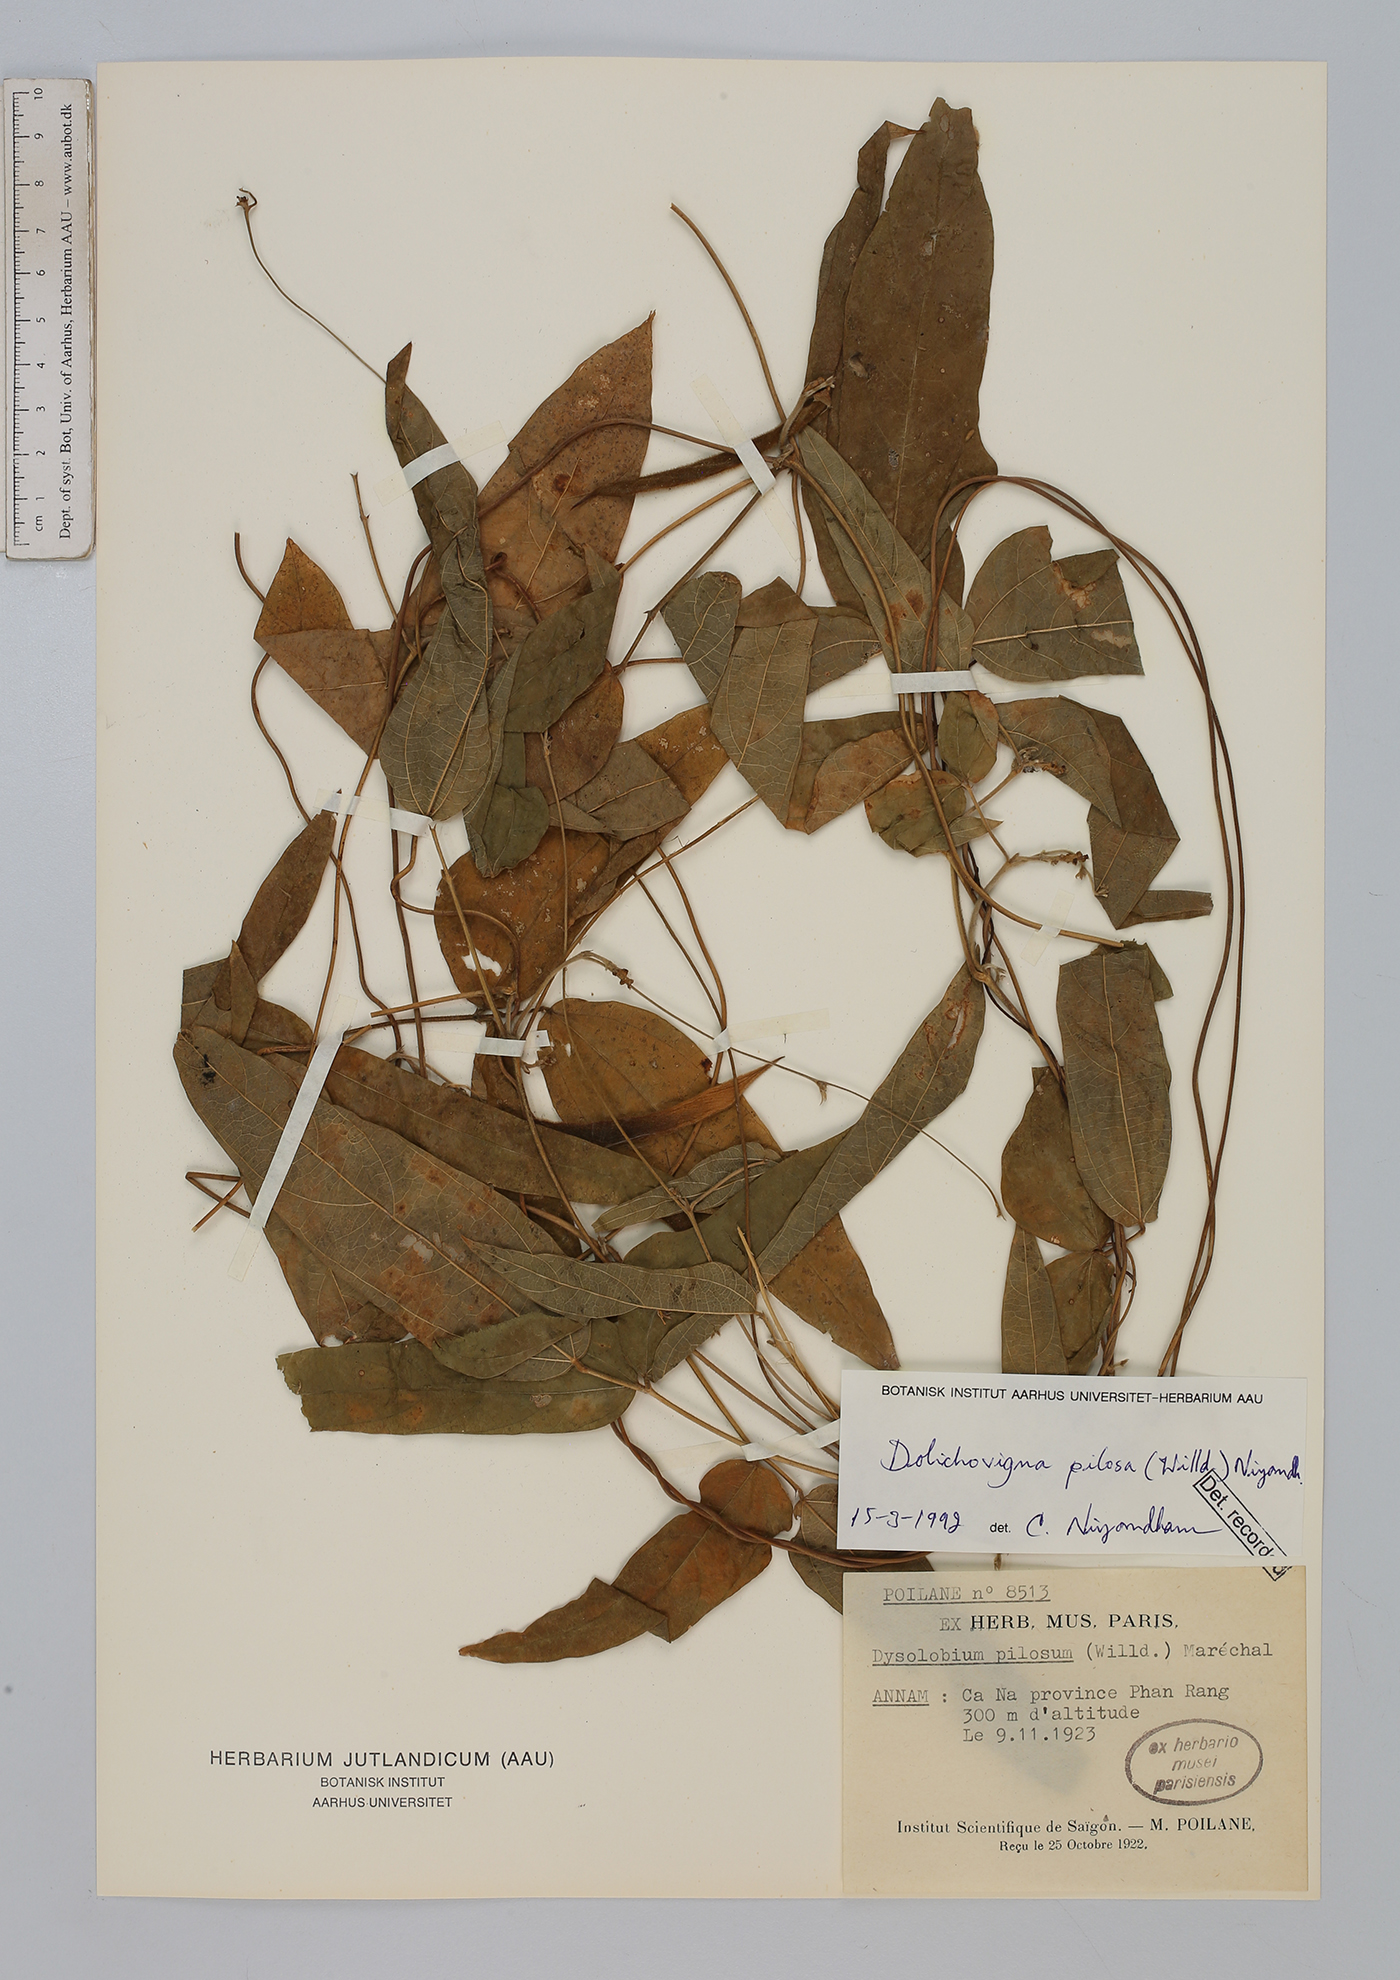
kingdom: Plantae
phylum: Tracheophyta
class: Magnoliopsida
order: Fabales
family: Fabaceae
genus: Dysolobium
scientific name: Dysolobium pilosum
